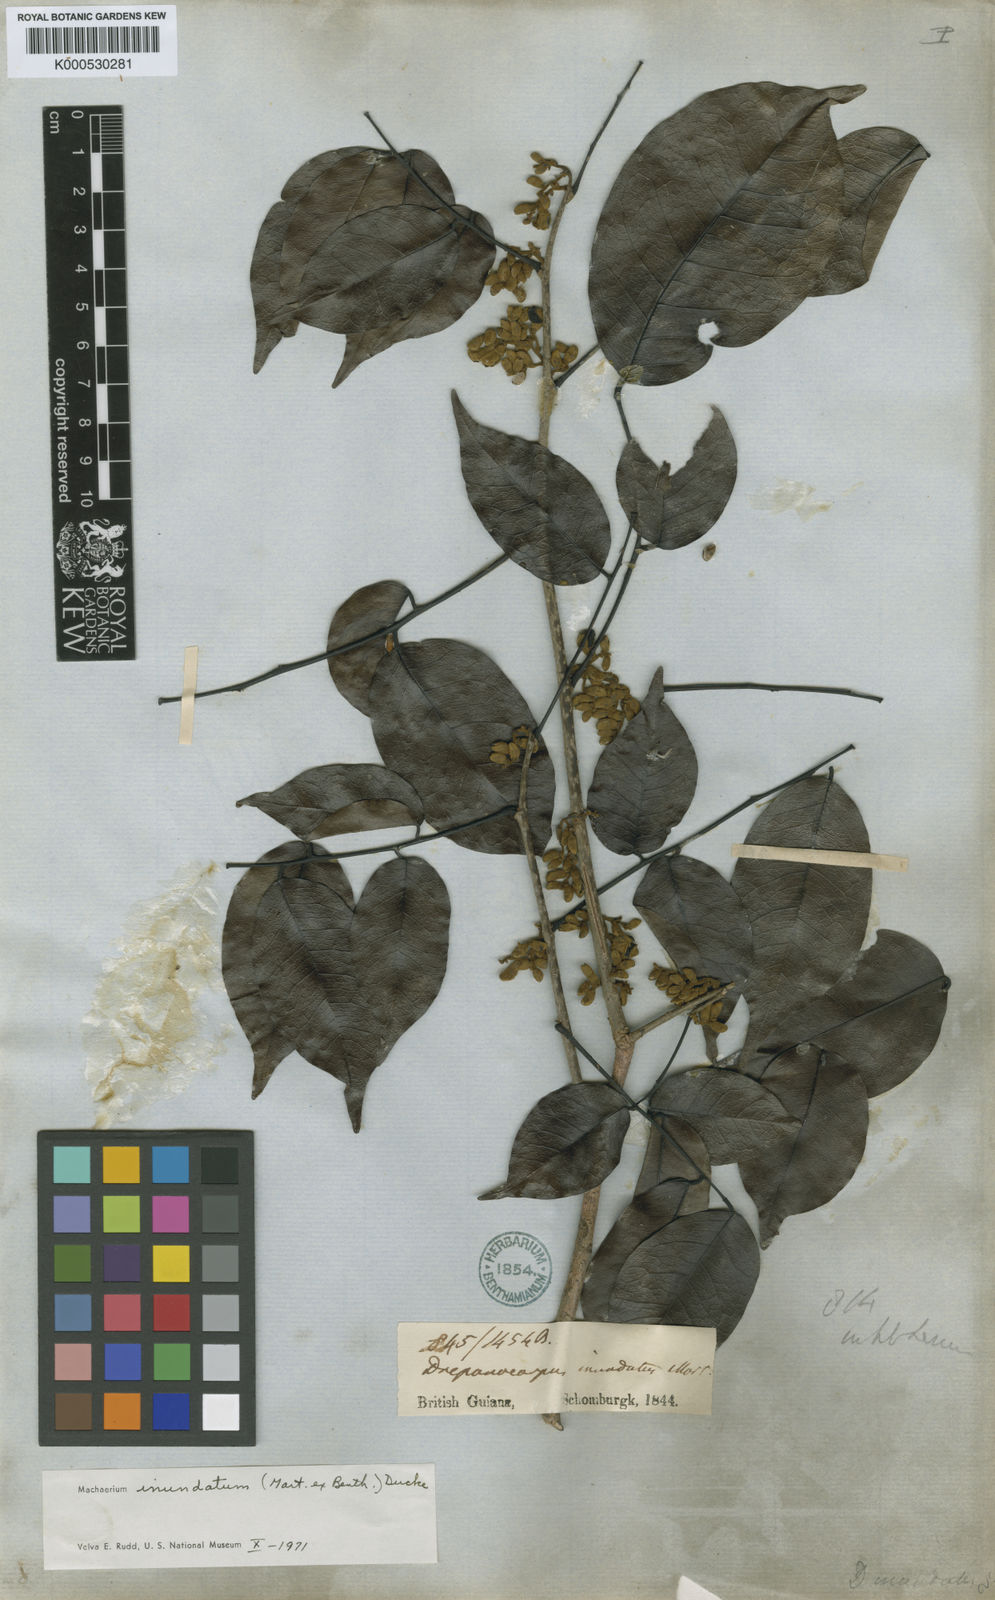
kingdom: Plantae
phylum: Tracheophyta
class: Magnoliopsida
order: Fabales
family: Fabaceae
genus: Machaerium
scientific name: Machaerium inundatum
